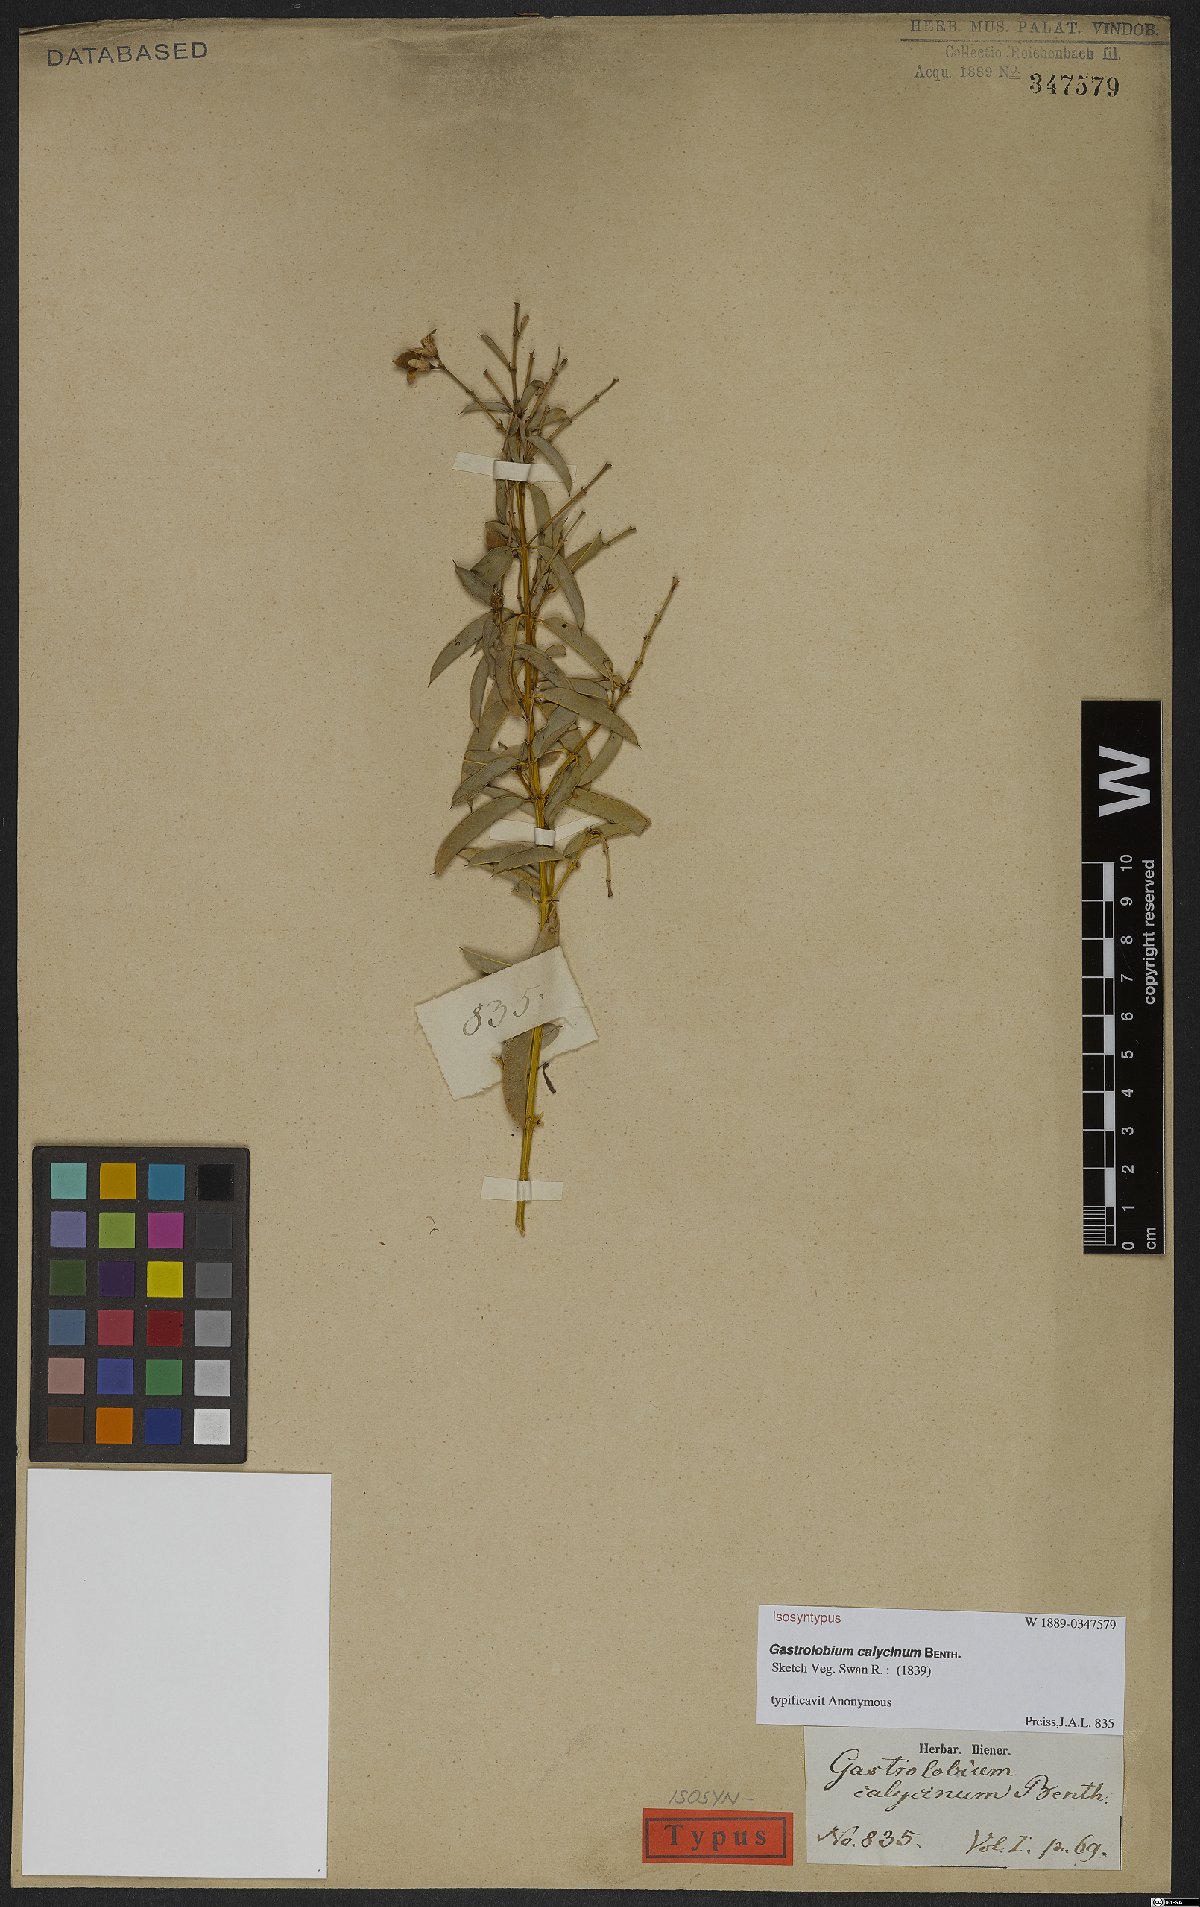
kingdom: Plantae
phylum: Tracheophyta
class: Magnoliopsida
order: Fabales
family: Fabaceae
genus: Gastrolobium
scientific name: Gastrolobium calycinum
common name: York road poison
